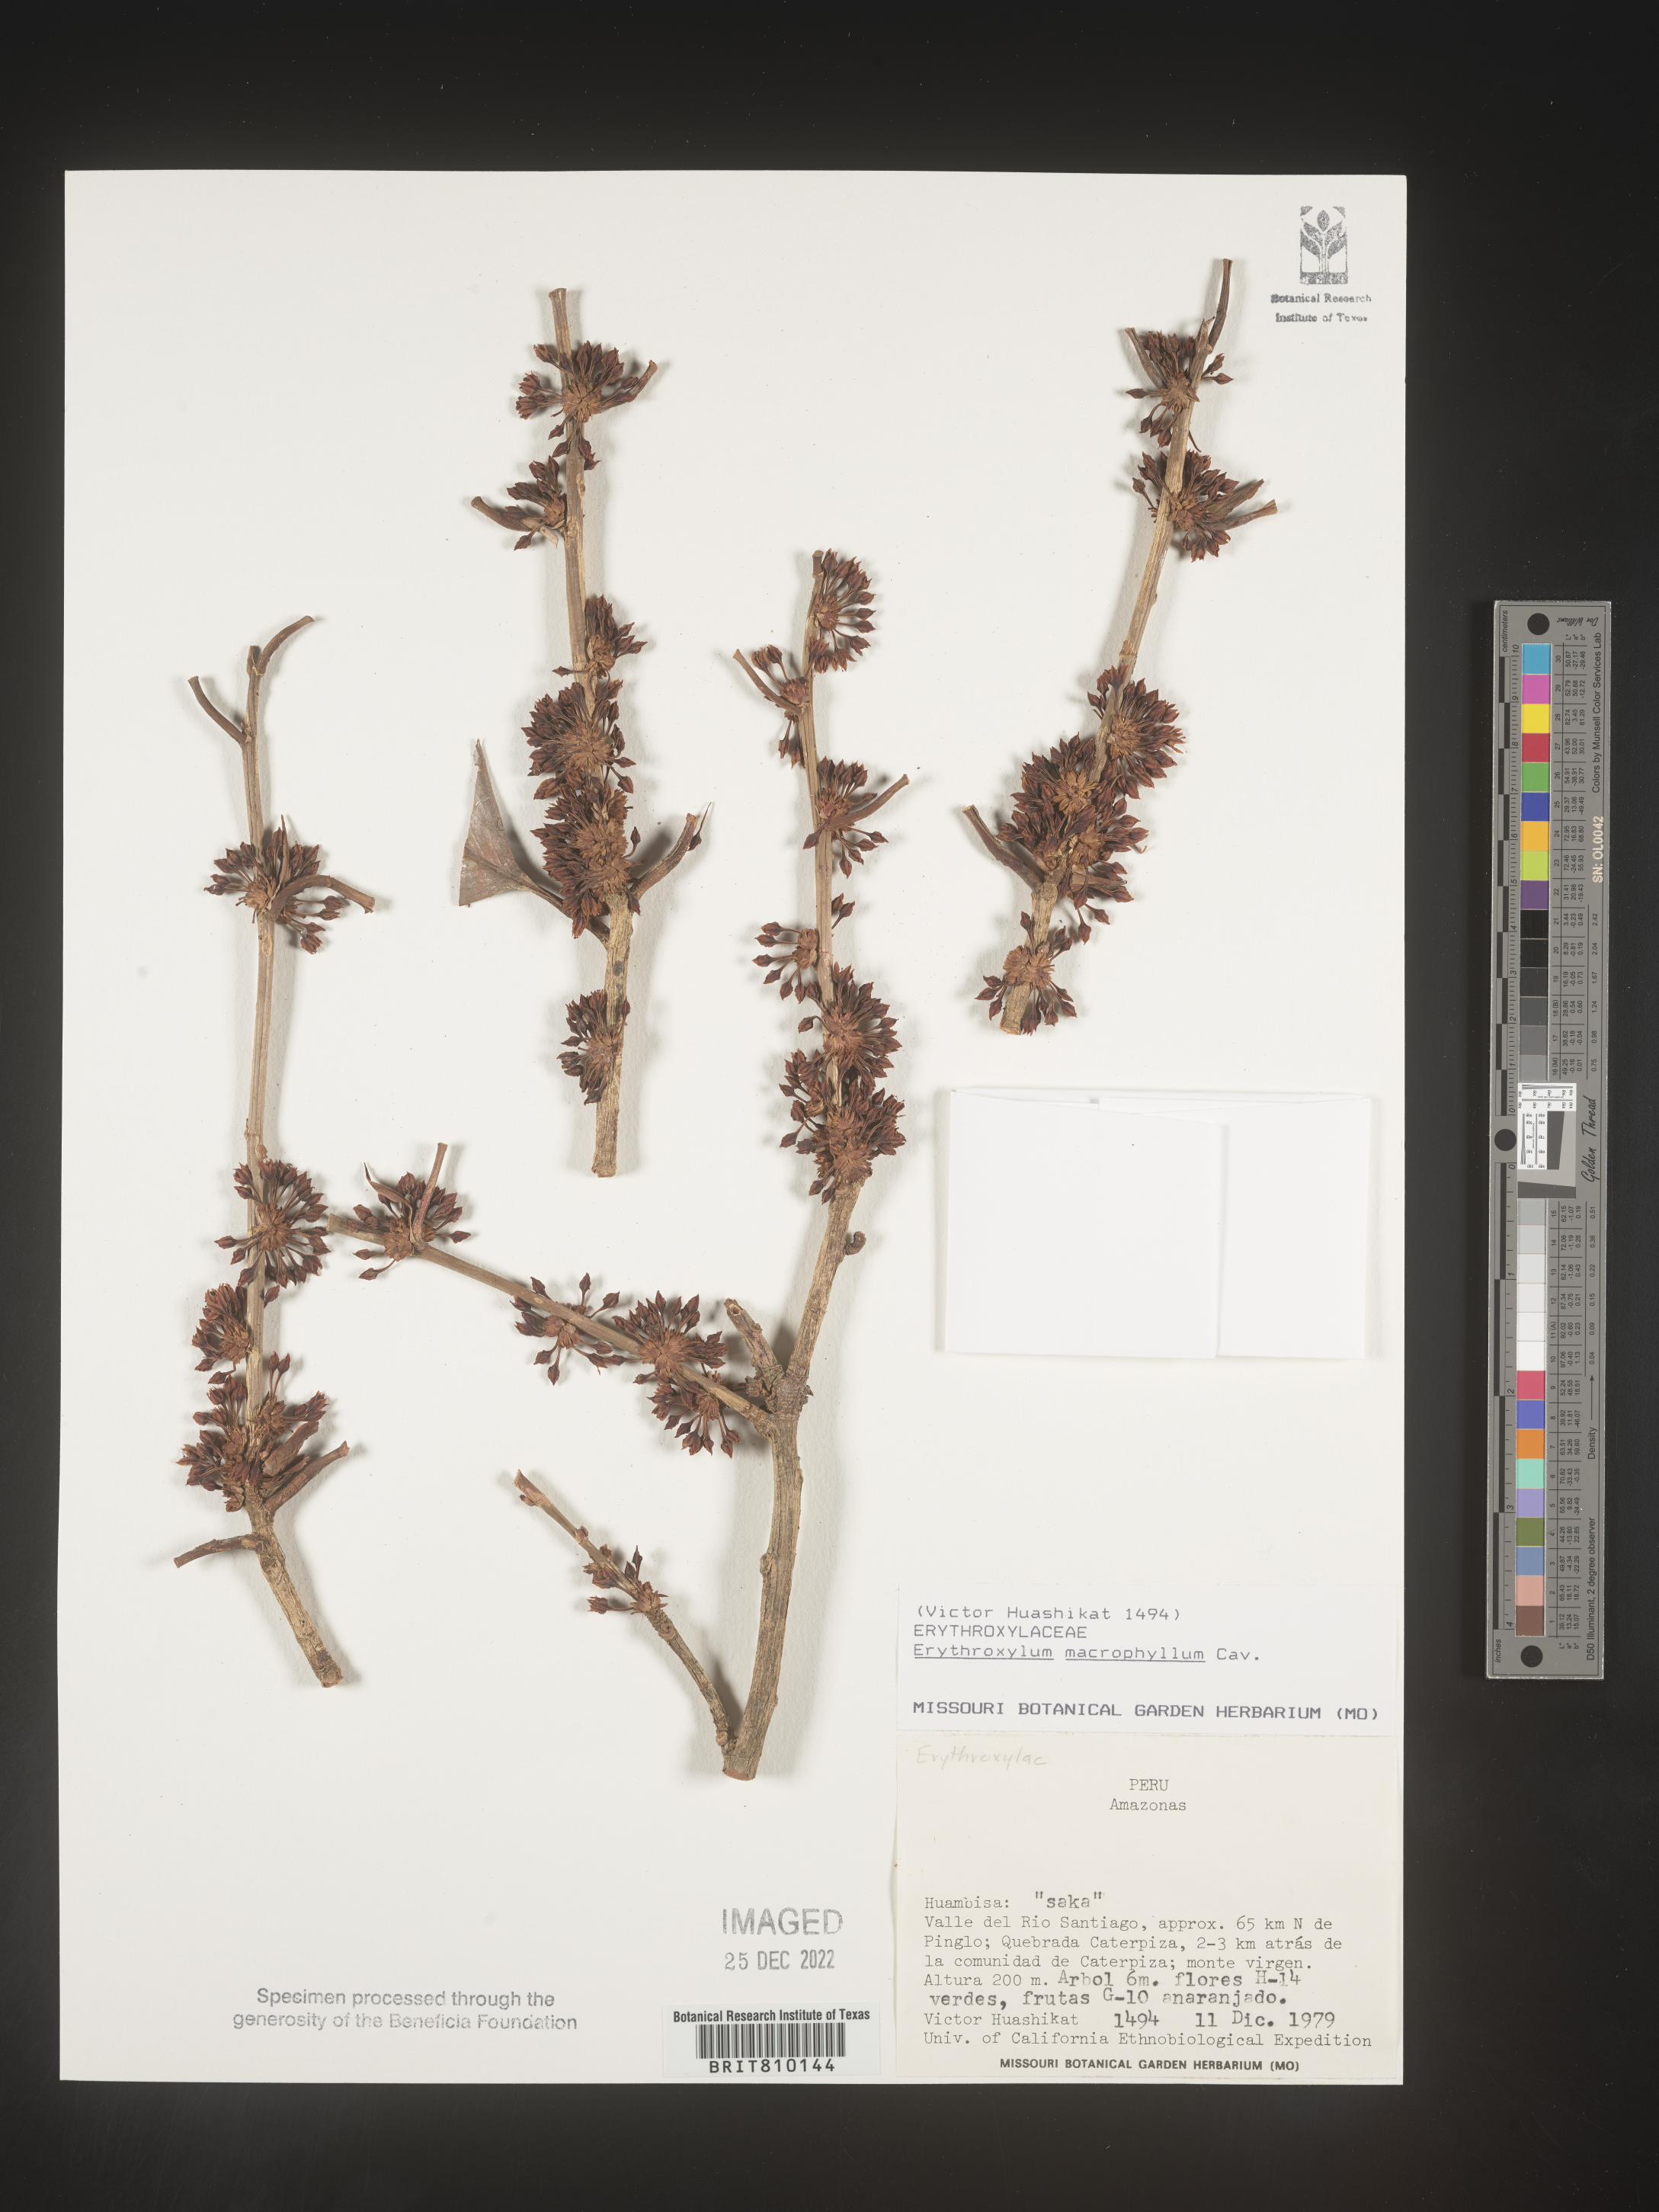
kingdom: Plantae
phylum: Tracheophyta
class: Magnoliopsida
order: Malpighiales
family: Erythroxylaceae
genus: Erythroxylum
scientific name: Erythroxylum
